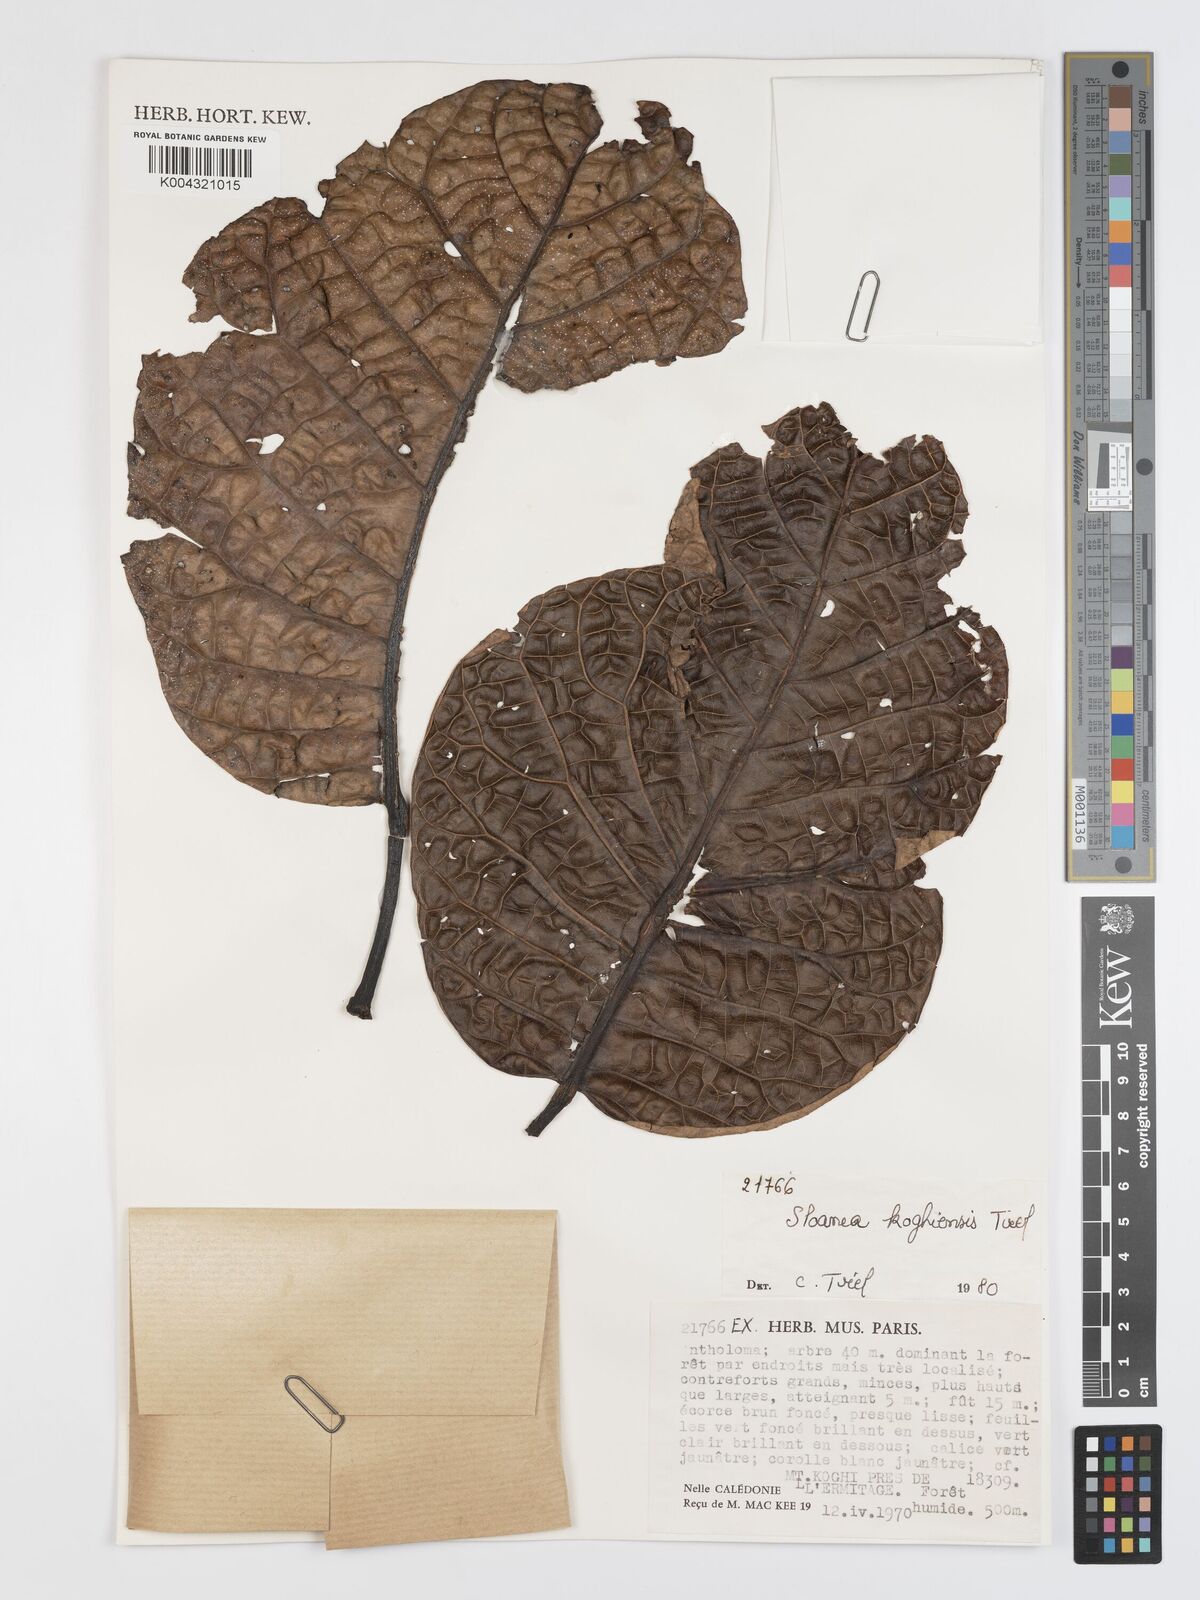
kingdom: Plantae
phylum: Tracheophyta
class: Magnoliopsida
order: Oxalidales
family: Elaeocarpaceae
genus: Sloanea
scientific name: Sloanea koghiensis
